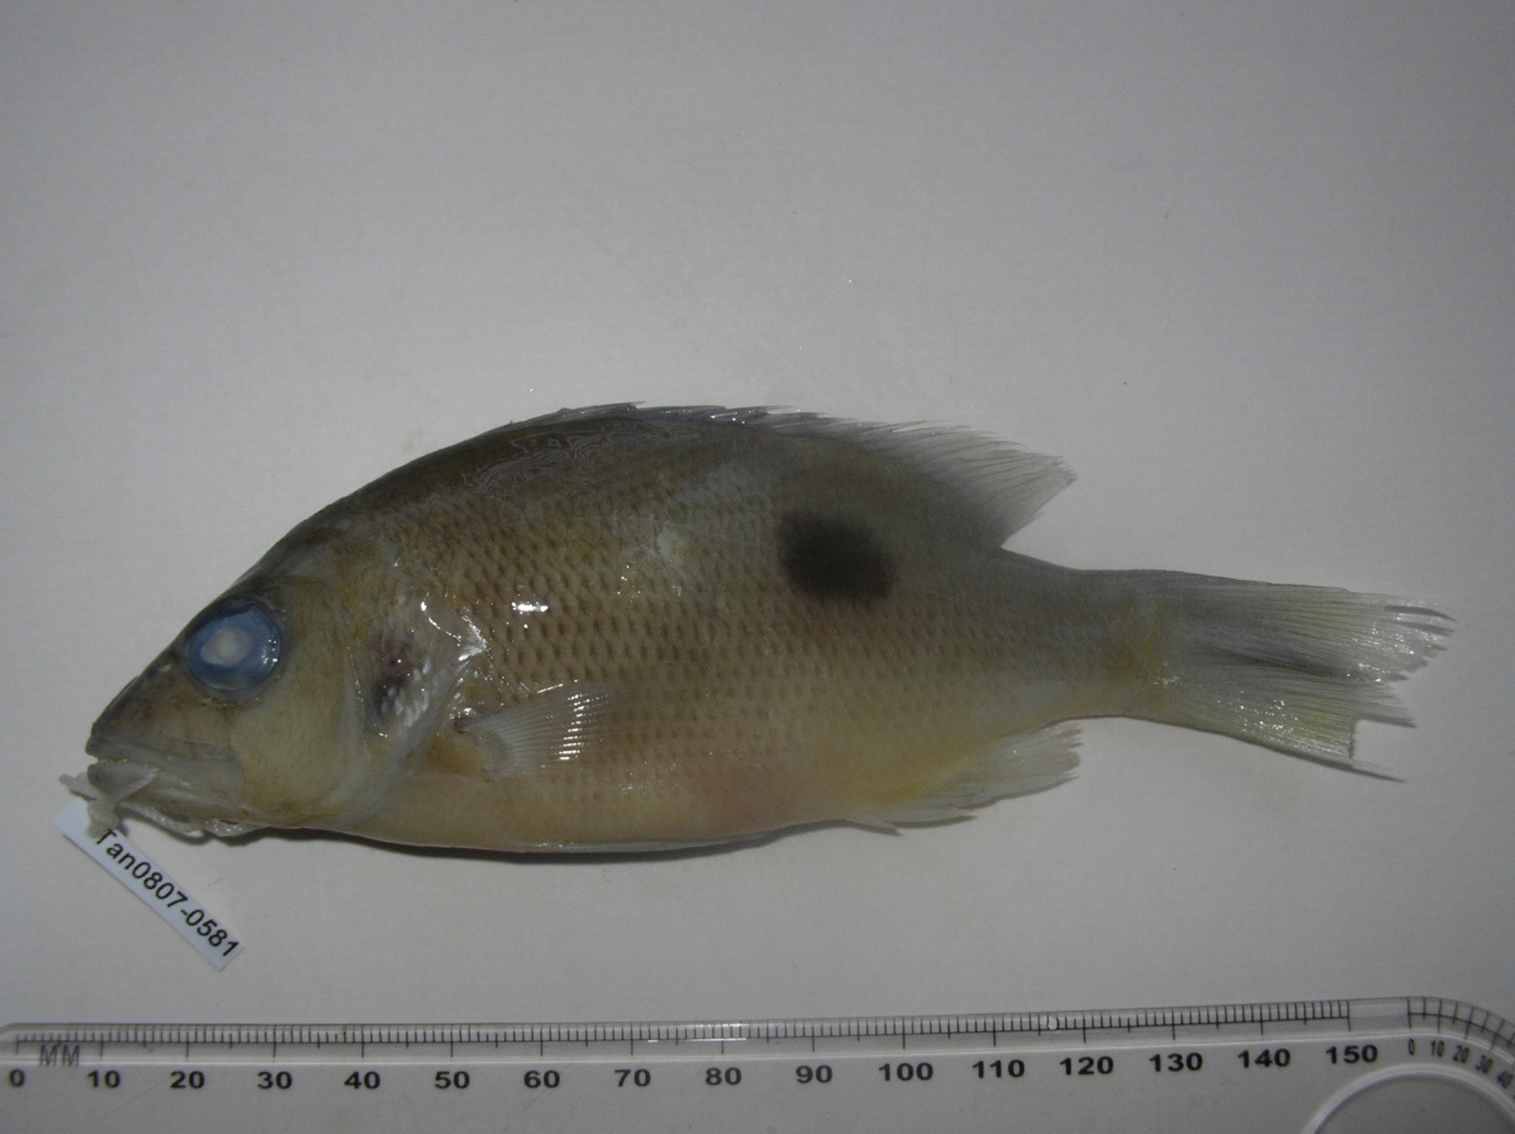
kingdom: Animalia
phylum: Chordata
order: Perciformes
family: Lutjanidae
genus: Lutjanus
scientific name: Lutjanus monostigma
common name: Onespot snapper
